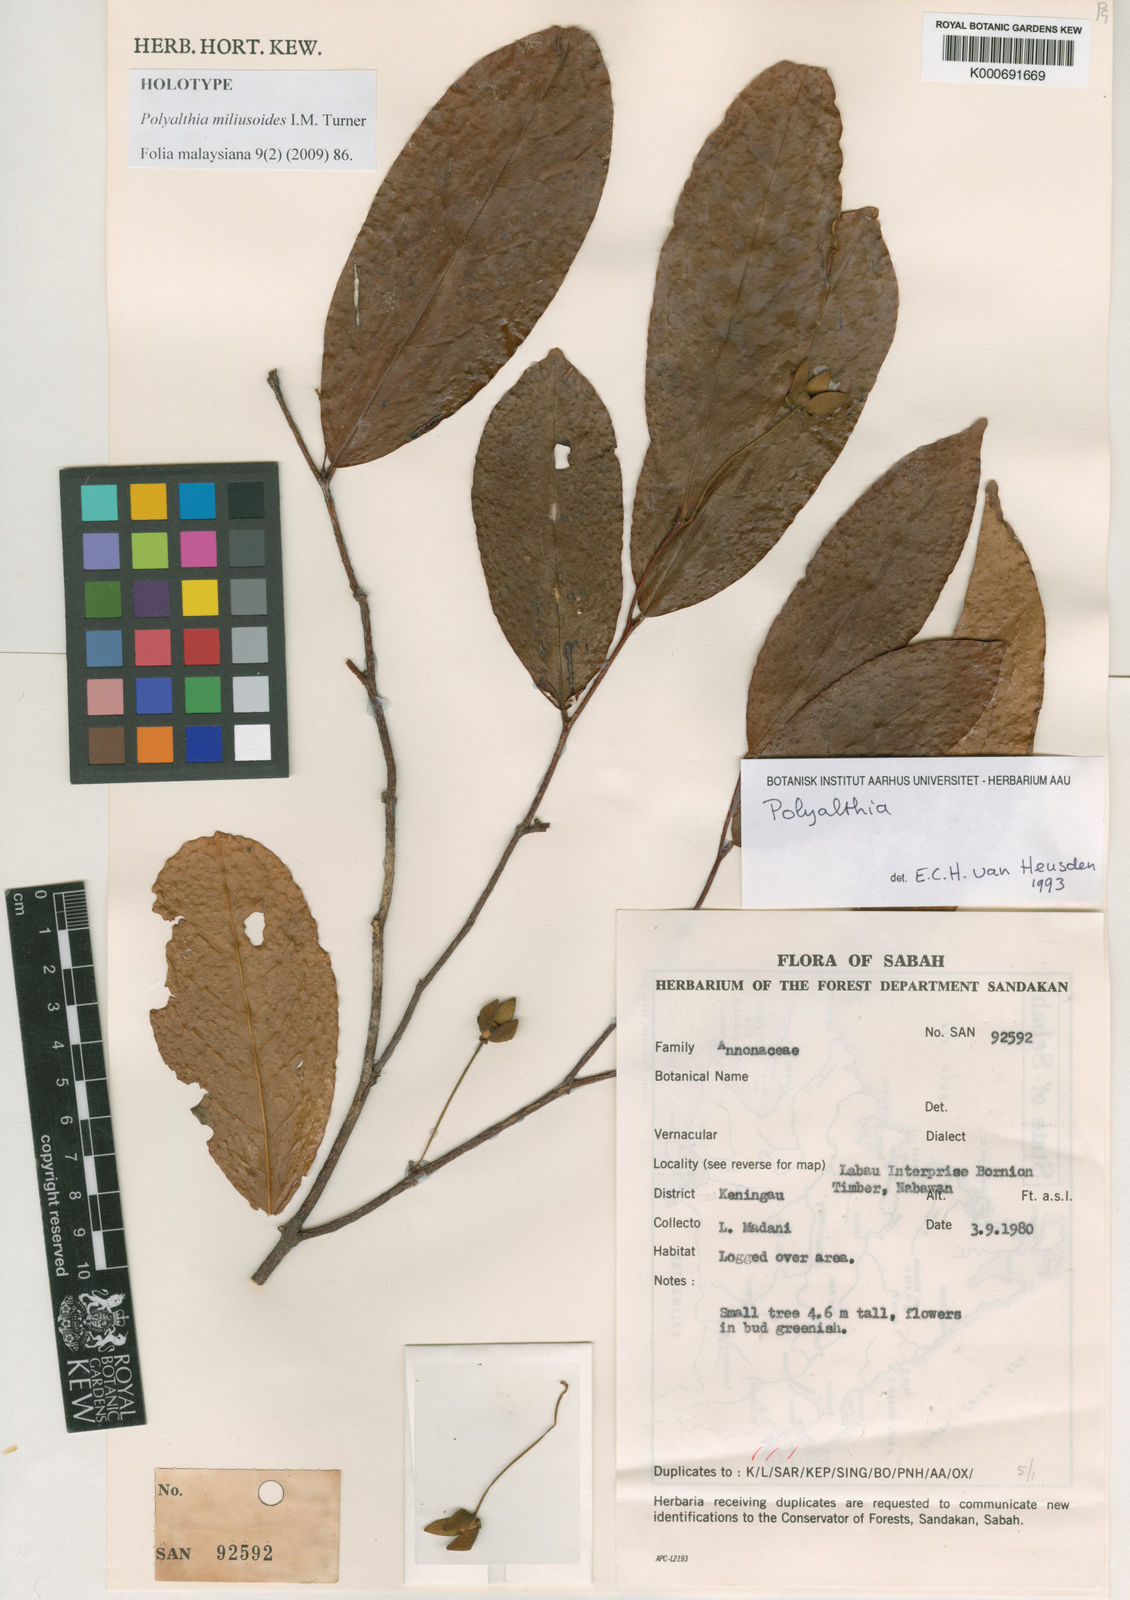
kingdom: Plantae
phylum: Tracheophyta
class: Magnoliopsida
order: Magnoliales
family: Annonaceae
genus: Polyalthia
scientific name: Polyalthia longipes
